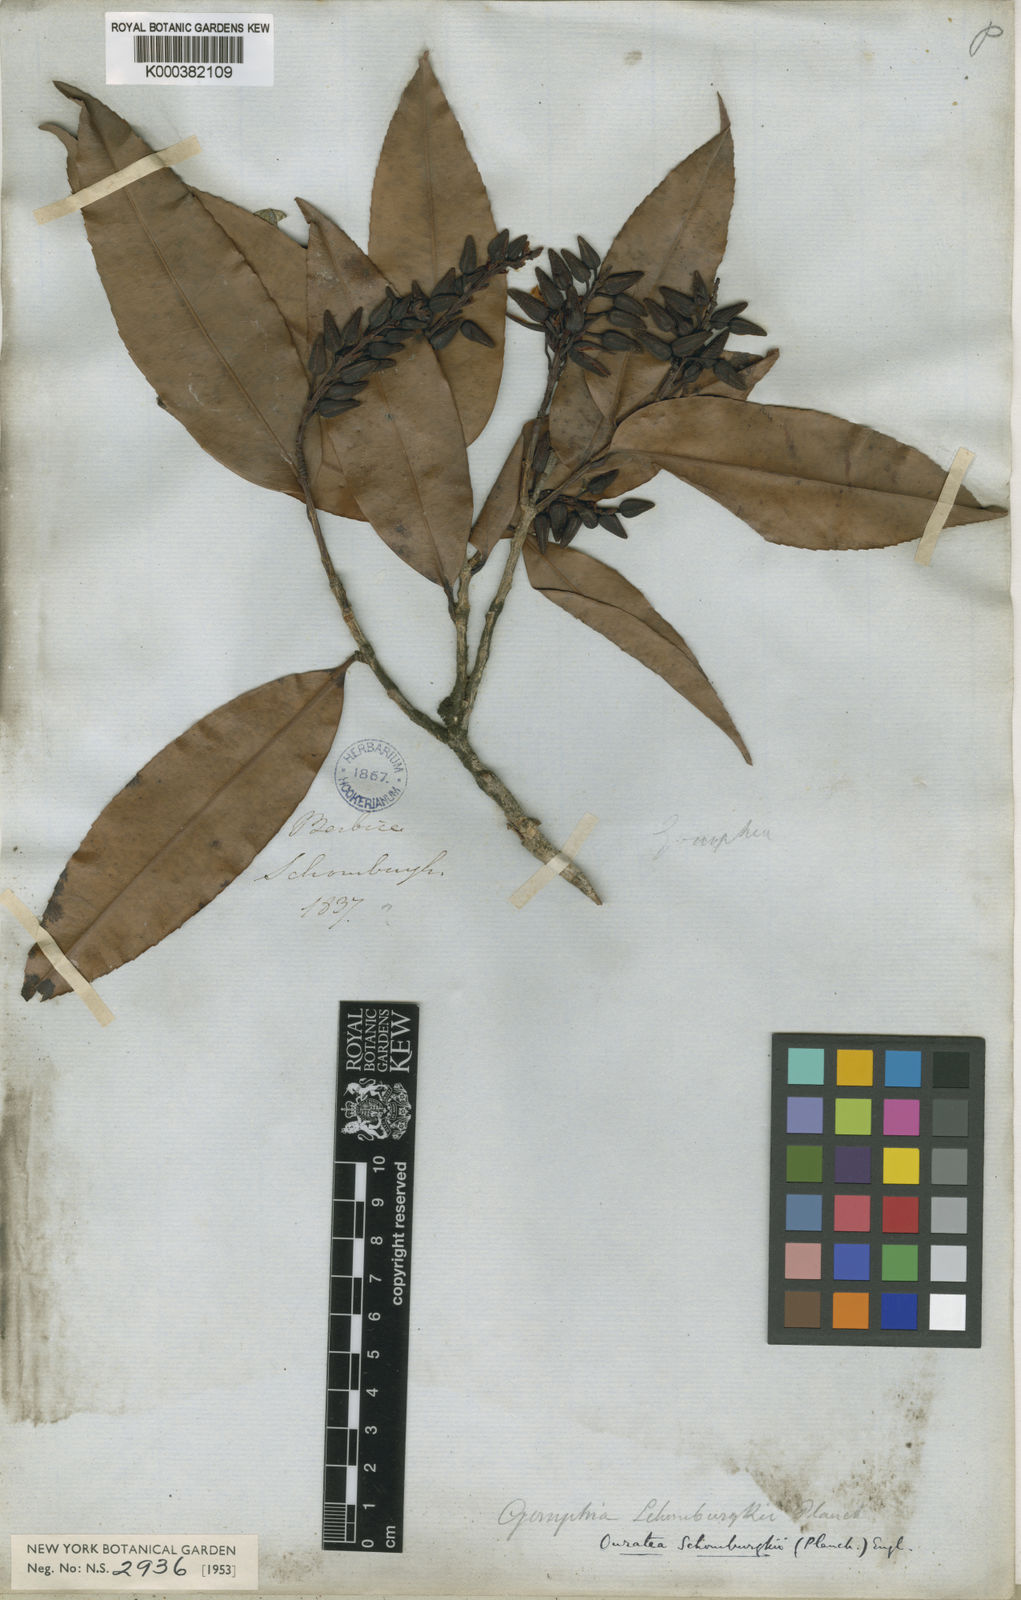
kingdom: Plantae
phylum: Tracheophyta
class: Magnoliopsida
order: Malpighiales
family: Ochnaceae
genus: Ouratea
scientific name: Ouratea schomburgkii
